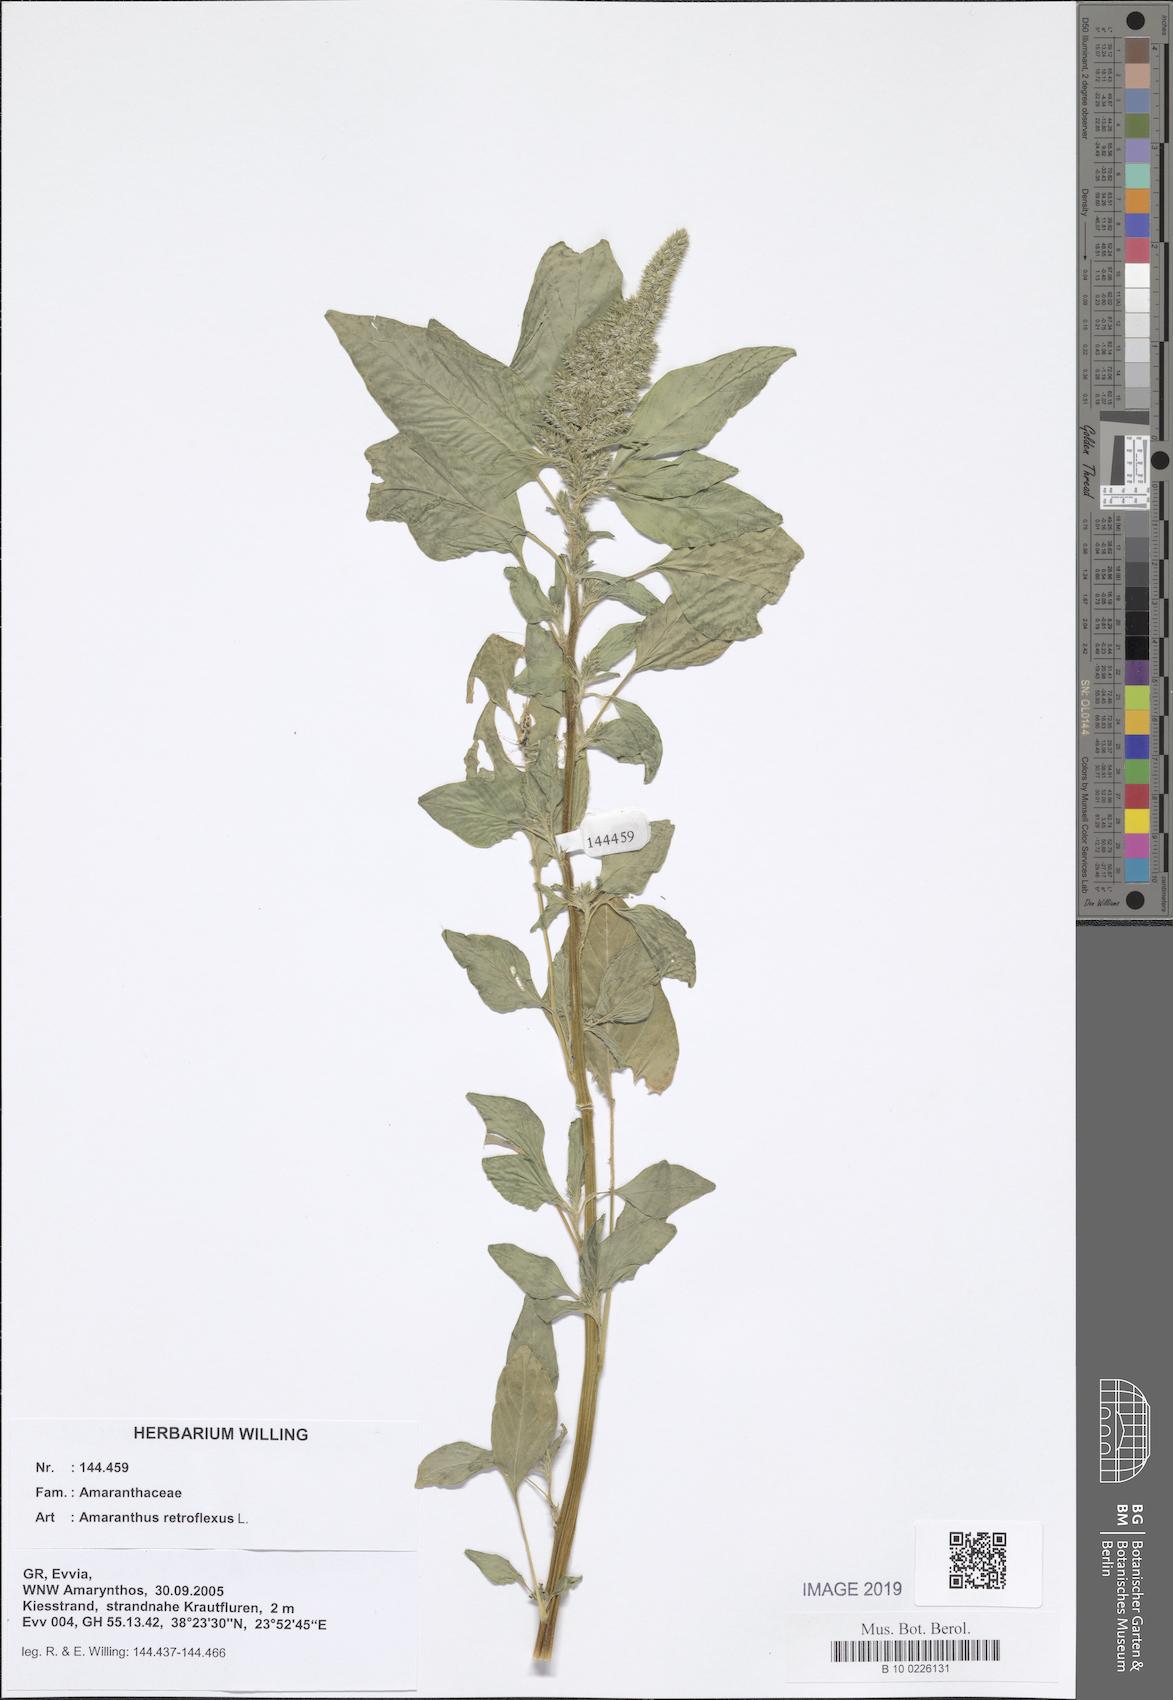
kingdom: Plantae
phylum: Tracheophyta
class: Magnoliopsida
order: Caryophyllales
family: Amaranthaceae
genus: Amaranthus
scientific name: Amaranthus retroflexus
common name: Redroot amaranth
